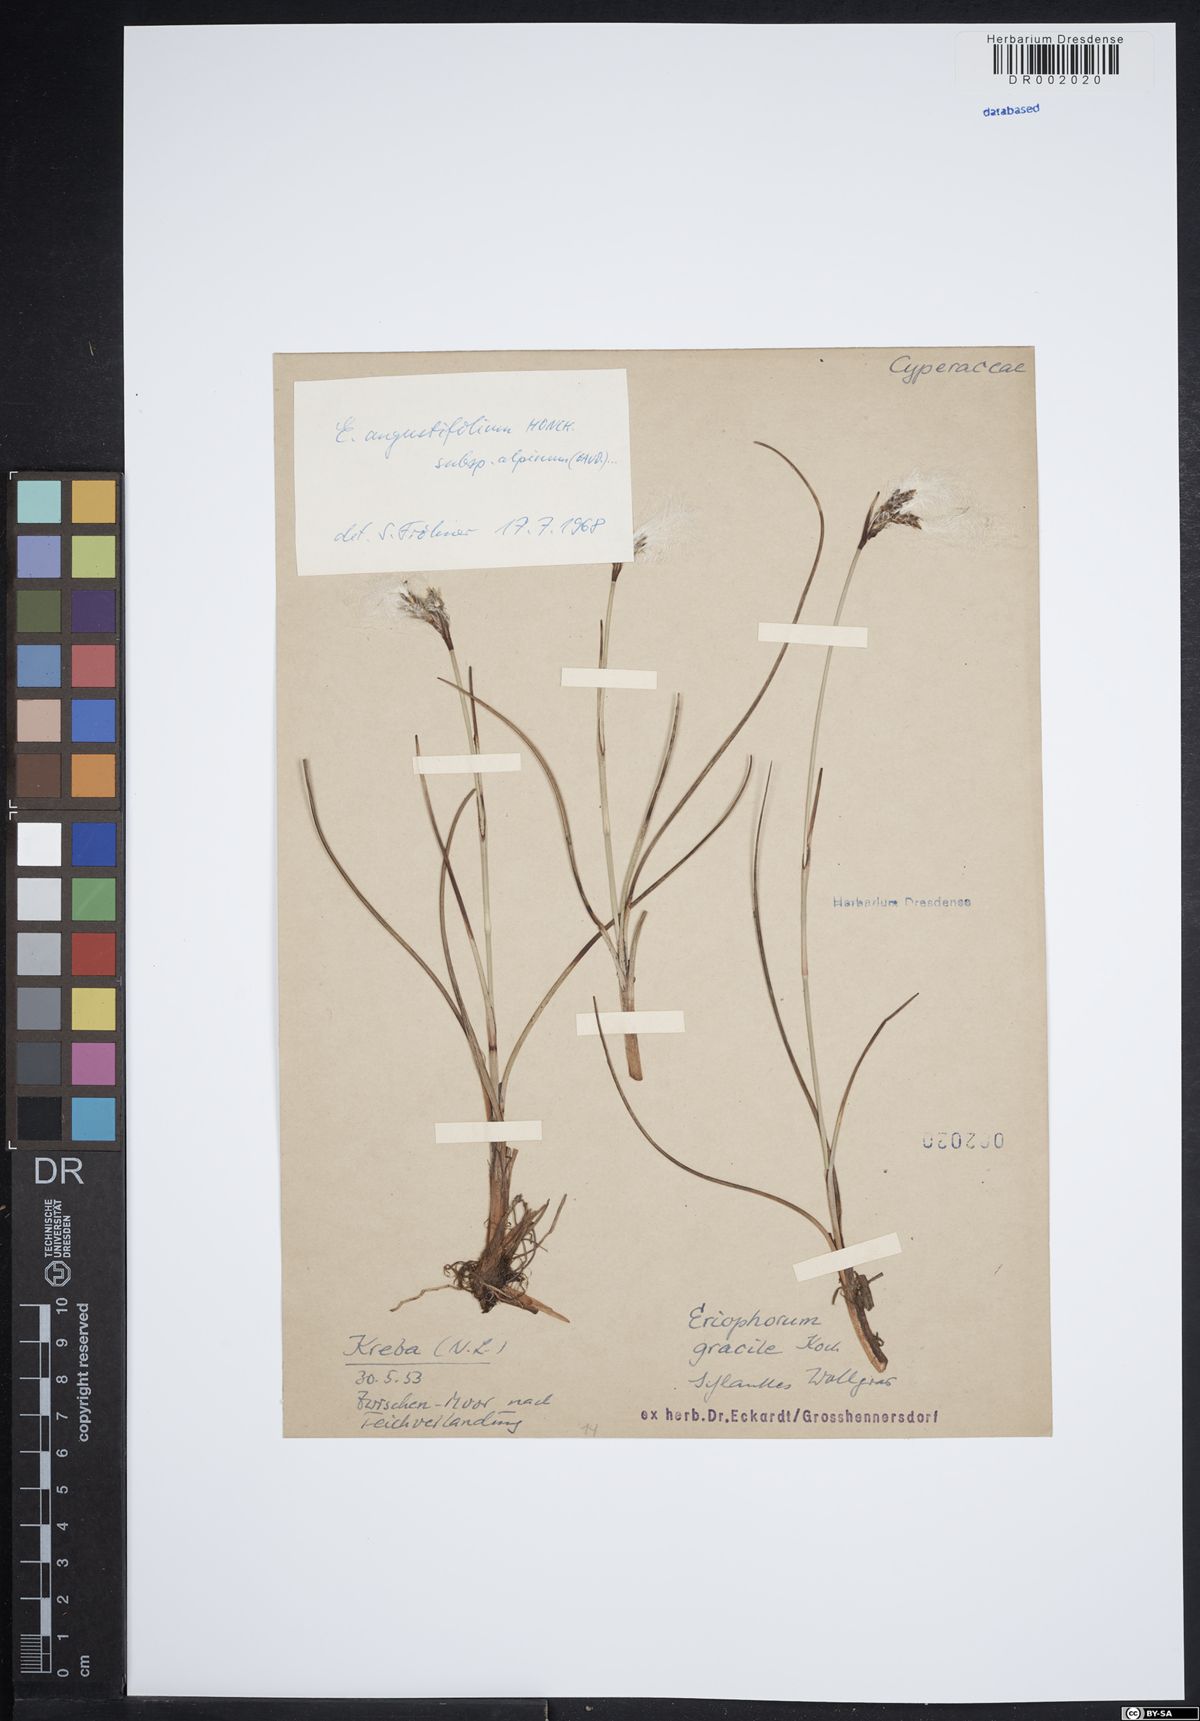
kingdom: Plantae
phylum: Tracheophyta
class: Liliopsida
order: Poales
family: Cyperaceae
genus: Eriophorum
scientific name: Eriophorum angustifolium
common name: Common cottongrass
